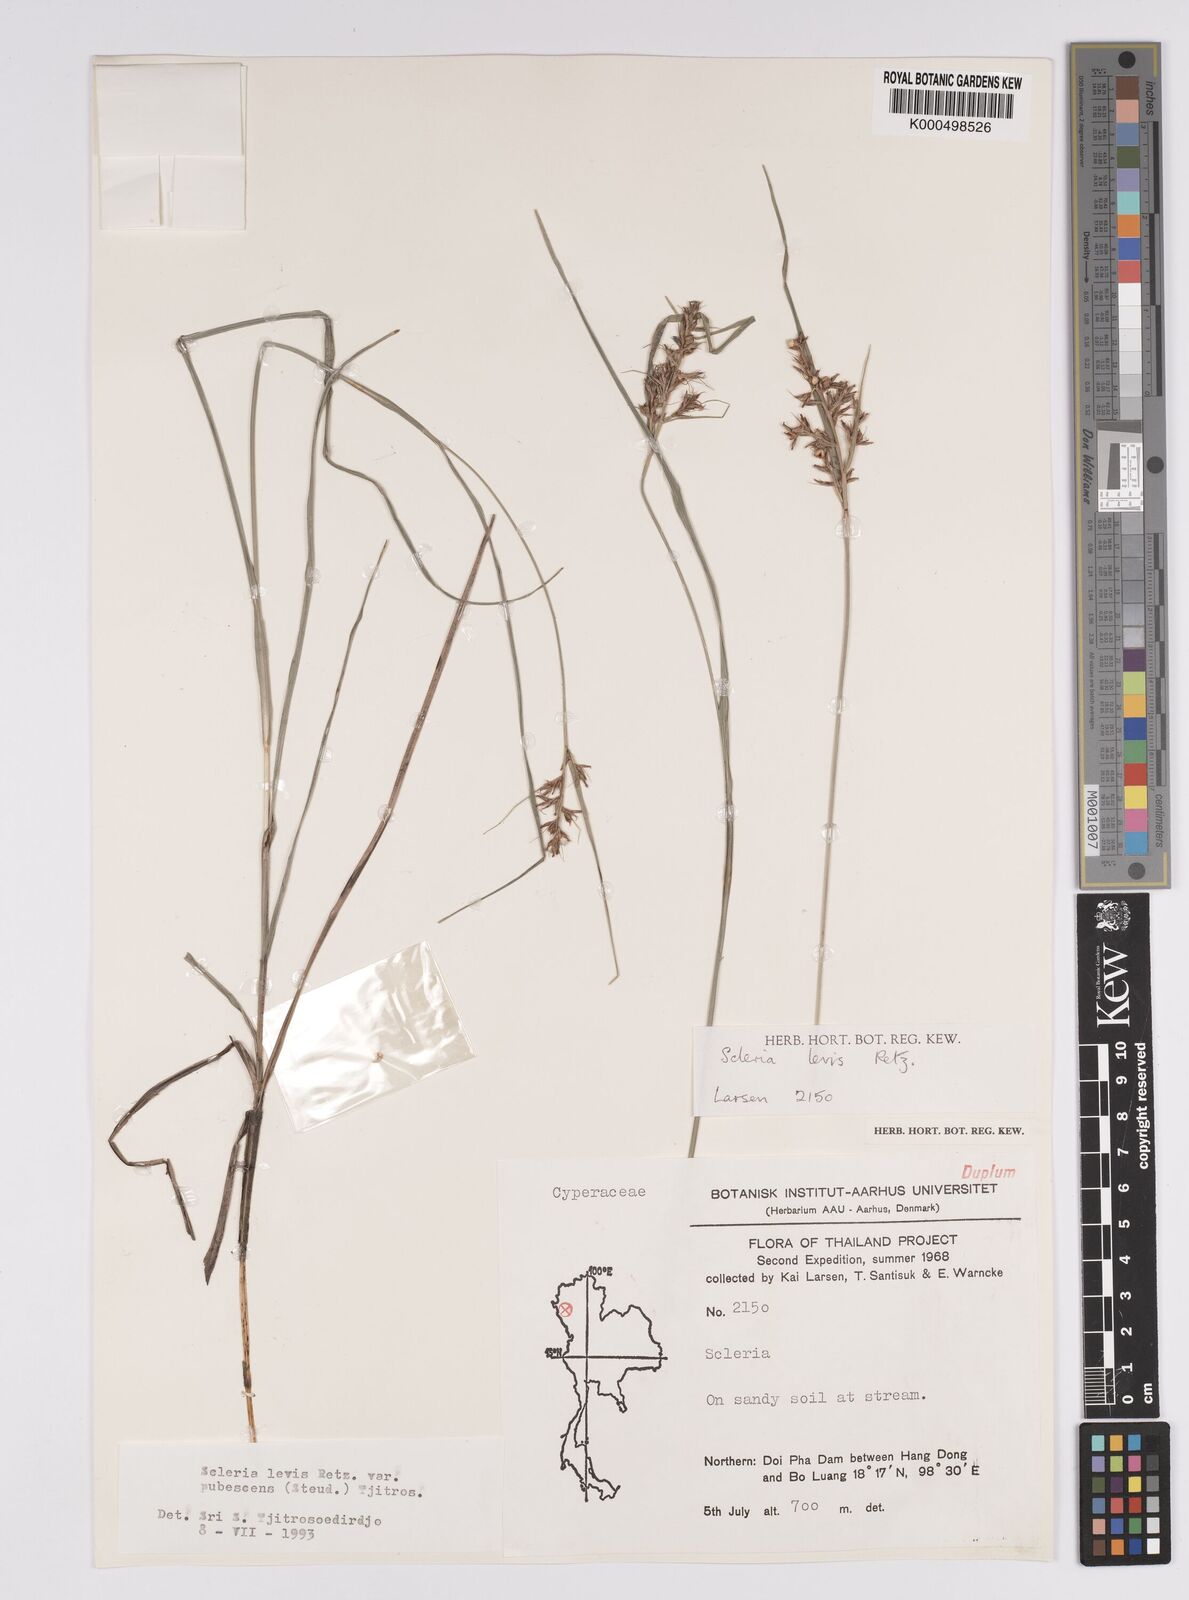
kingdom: Plantae
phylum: Tracheophyta
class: Liliopsida
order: Poales
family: Cyperaceae
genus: Scleria
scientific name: Scleria levis
